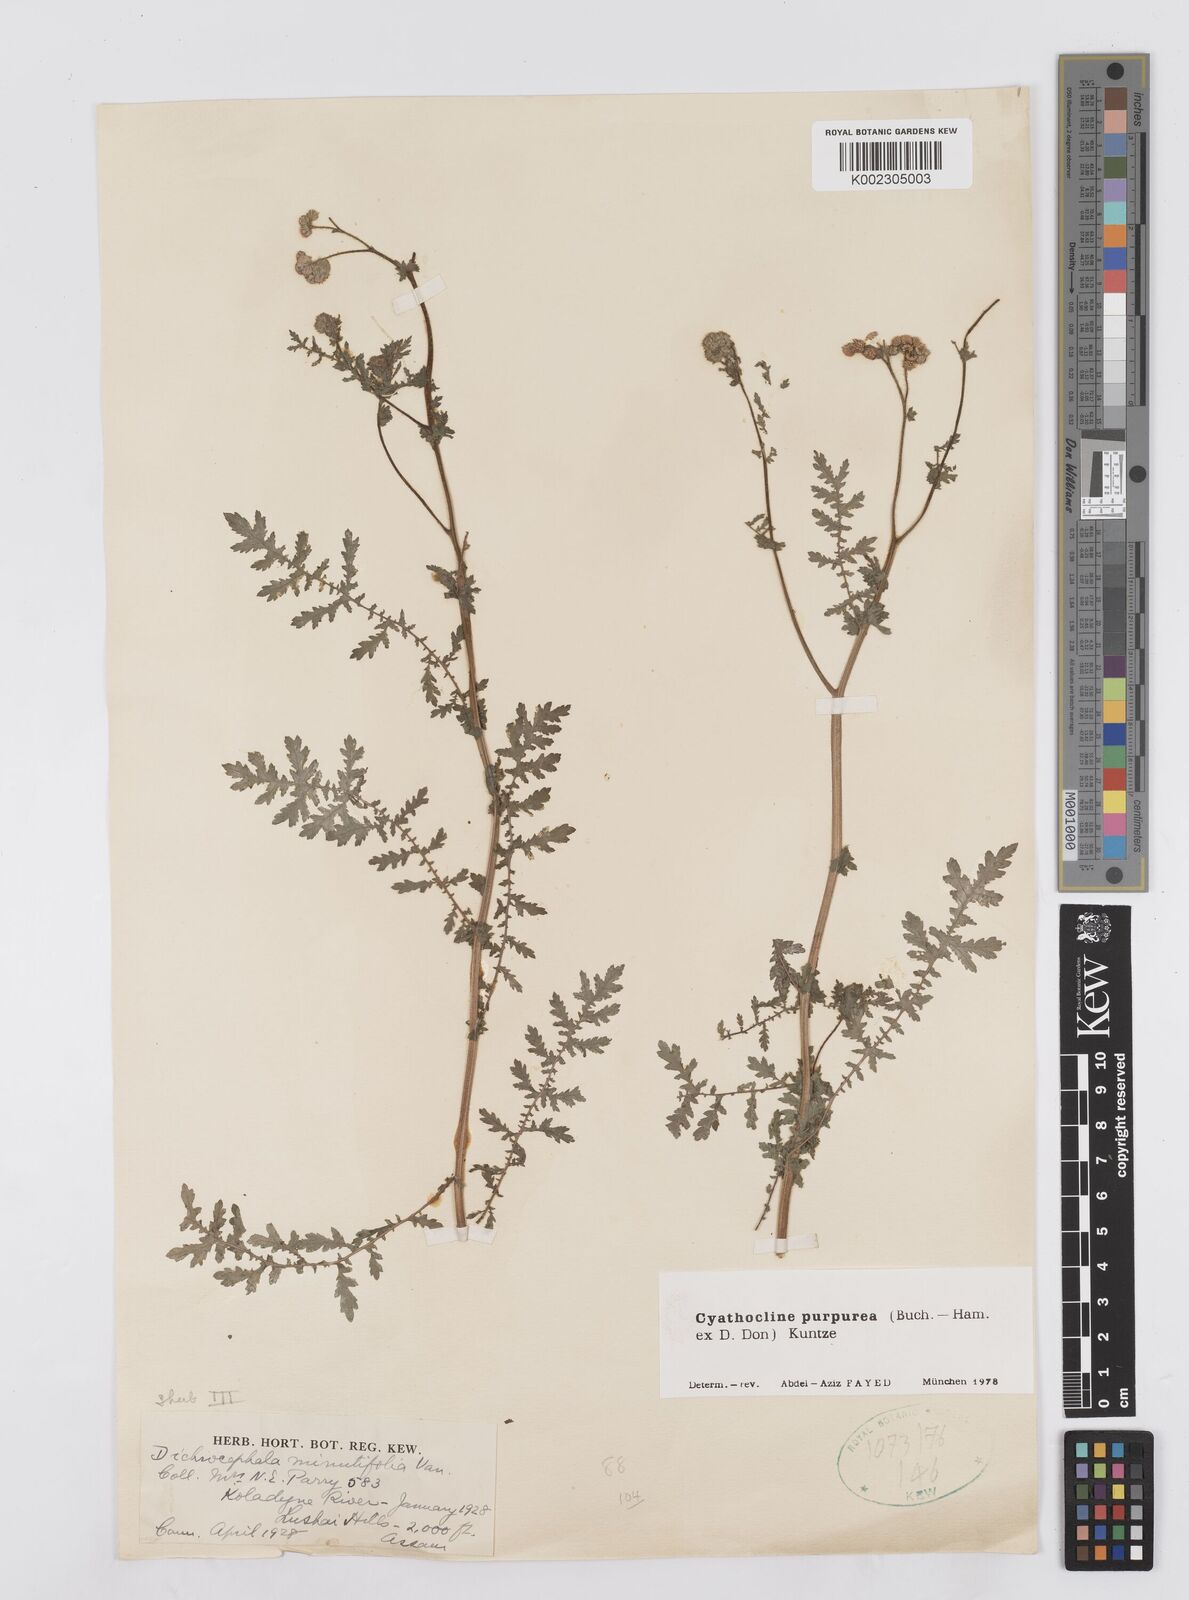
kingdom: Plantae
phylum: Tracheophyta
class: Magnoliopsida
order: Asterales
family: Asteraceae
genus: Cyathocline
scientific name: Cyathocline purpurea
